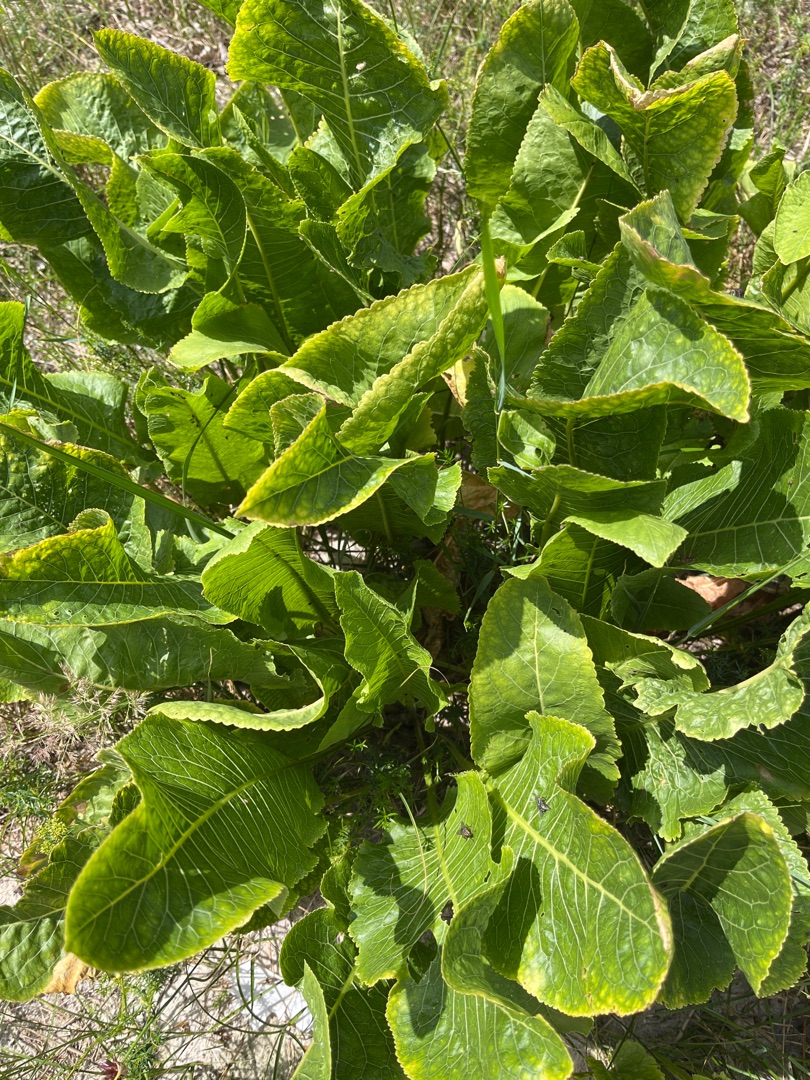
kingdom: Plantae
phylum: Tracheophyta
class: Magnoliopsida
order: Brassicales
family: Brassicaceae
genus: Armoracia
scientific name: Armoracia rusticana
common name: Peberrod
